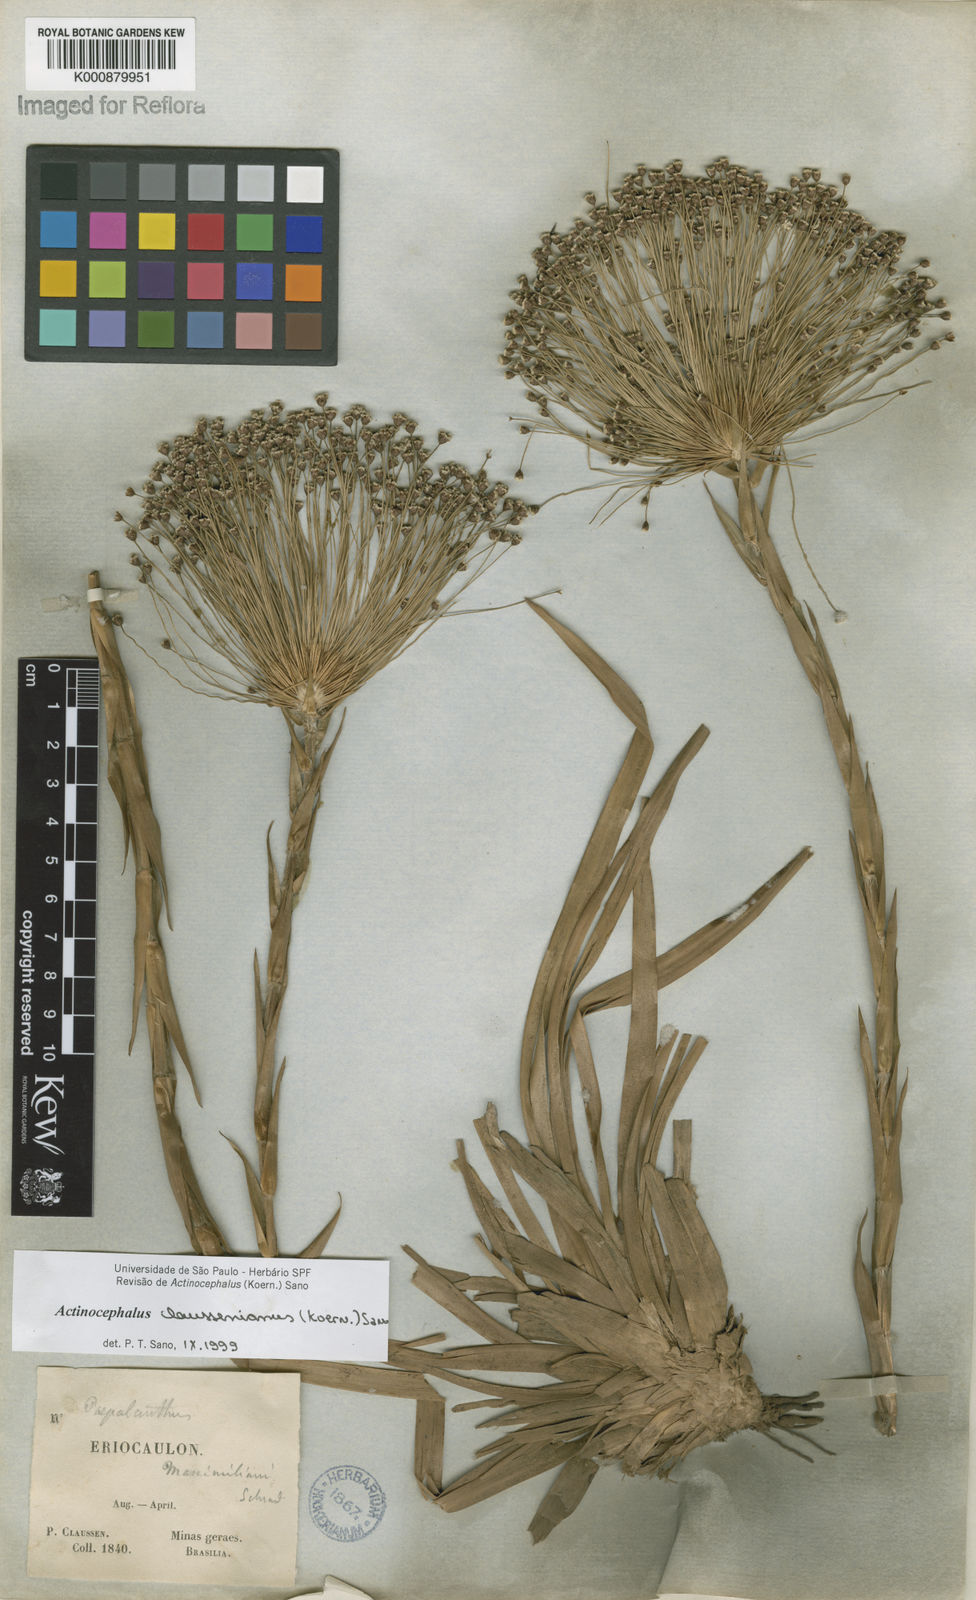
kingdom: Plantae
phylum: Tracheophyta
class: Liliopsida
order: Poales
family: Eriocaulaceae
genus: Paepalanthus
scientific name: Paepalanthus
